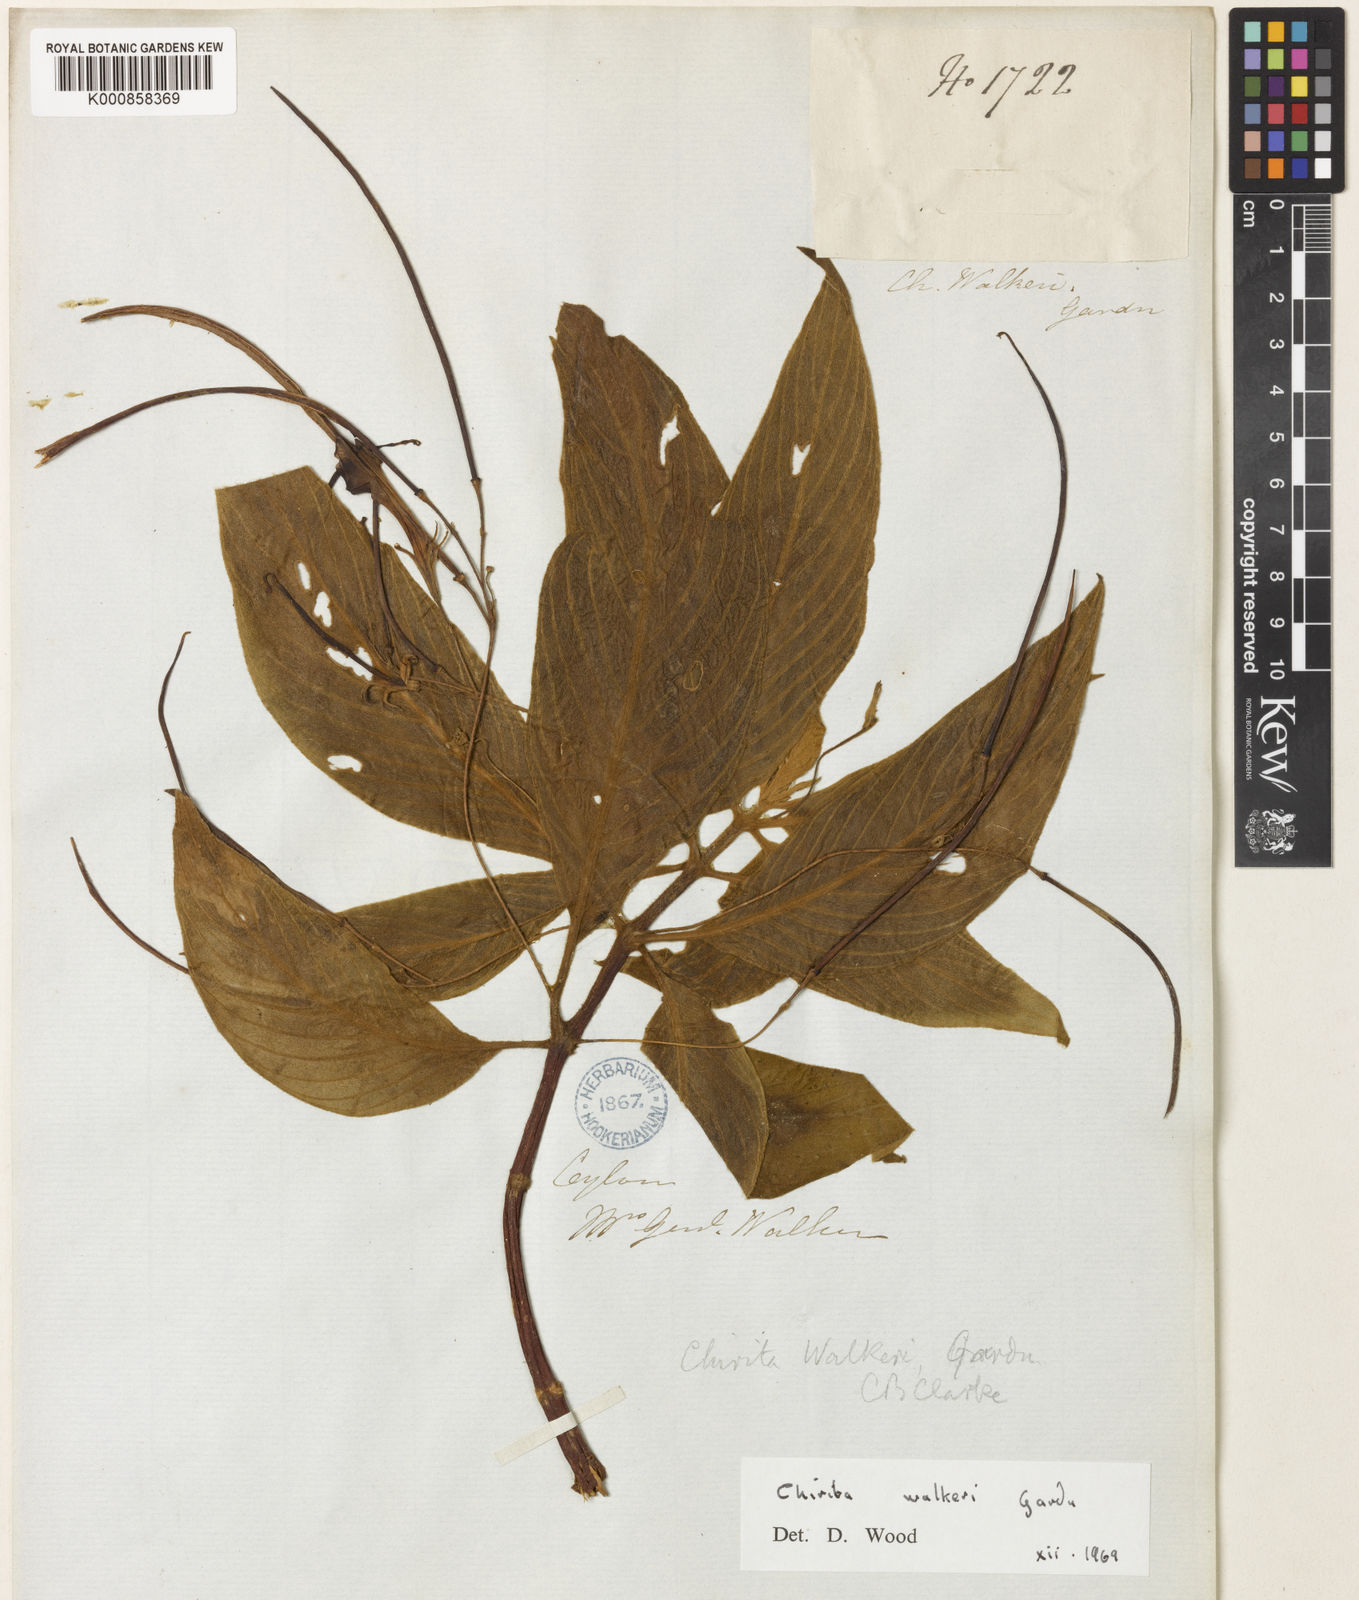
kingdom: Plantae
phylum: Tracheophyta
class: Magnoliopsida
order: Lamiales
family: Gesneriaceae
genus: Henckelia
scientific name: Henckelia walkerae
